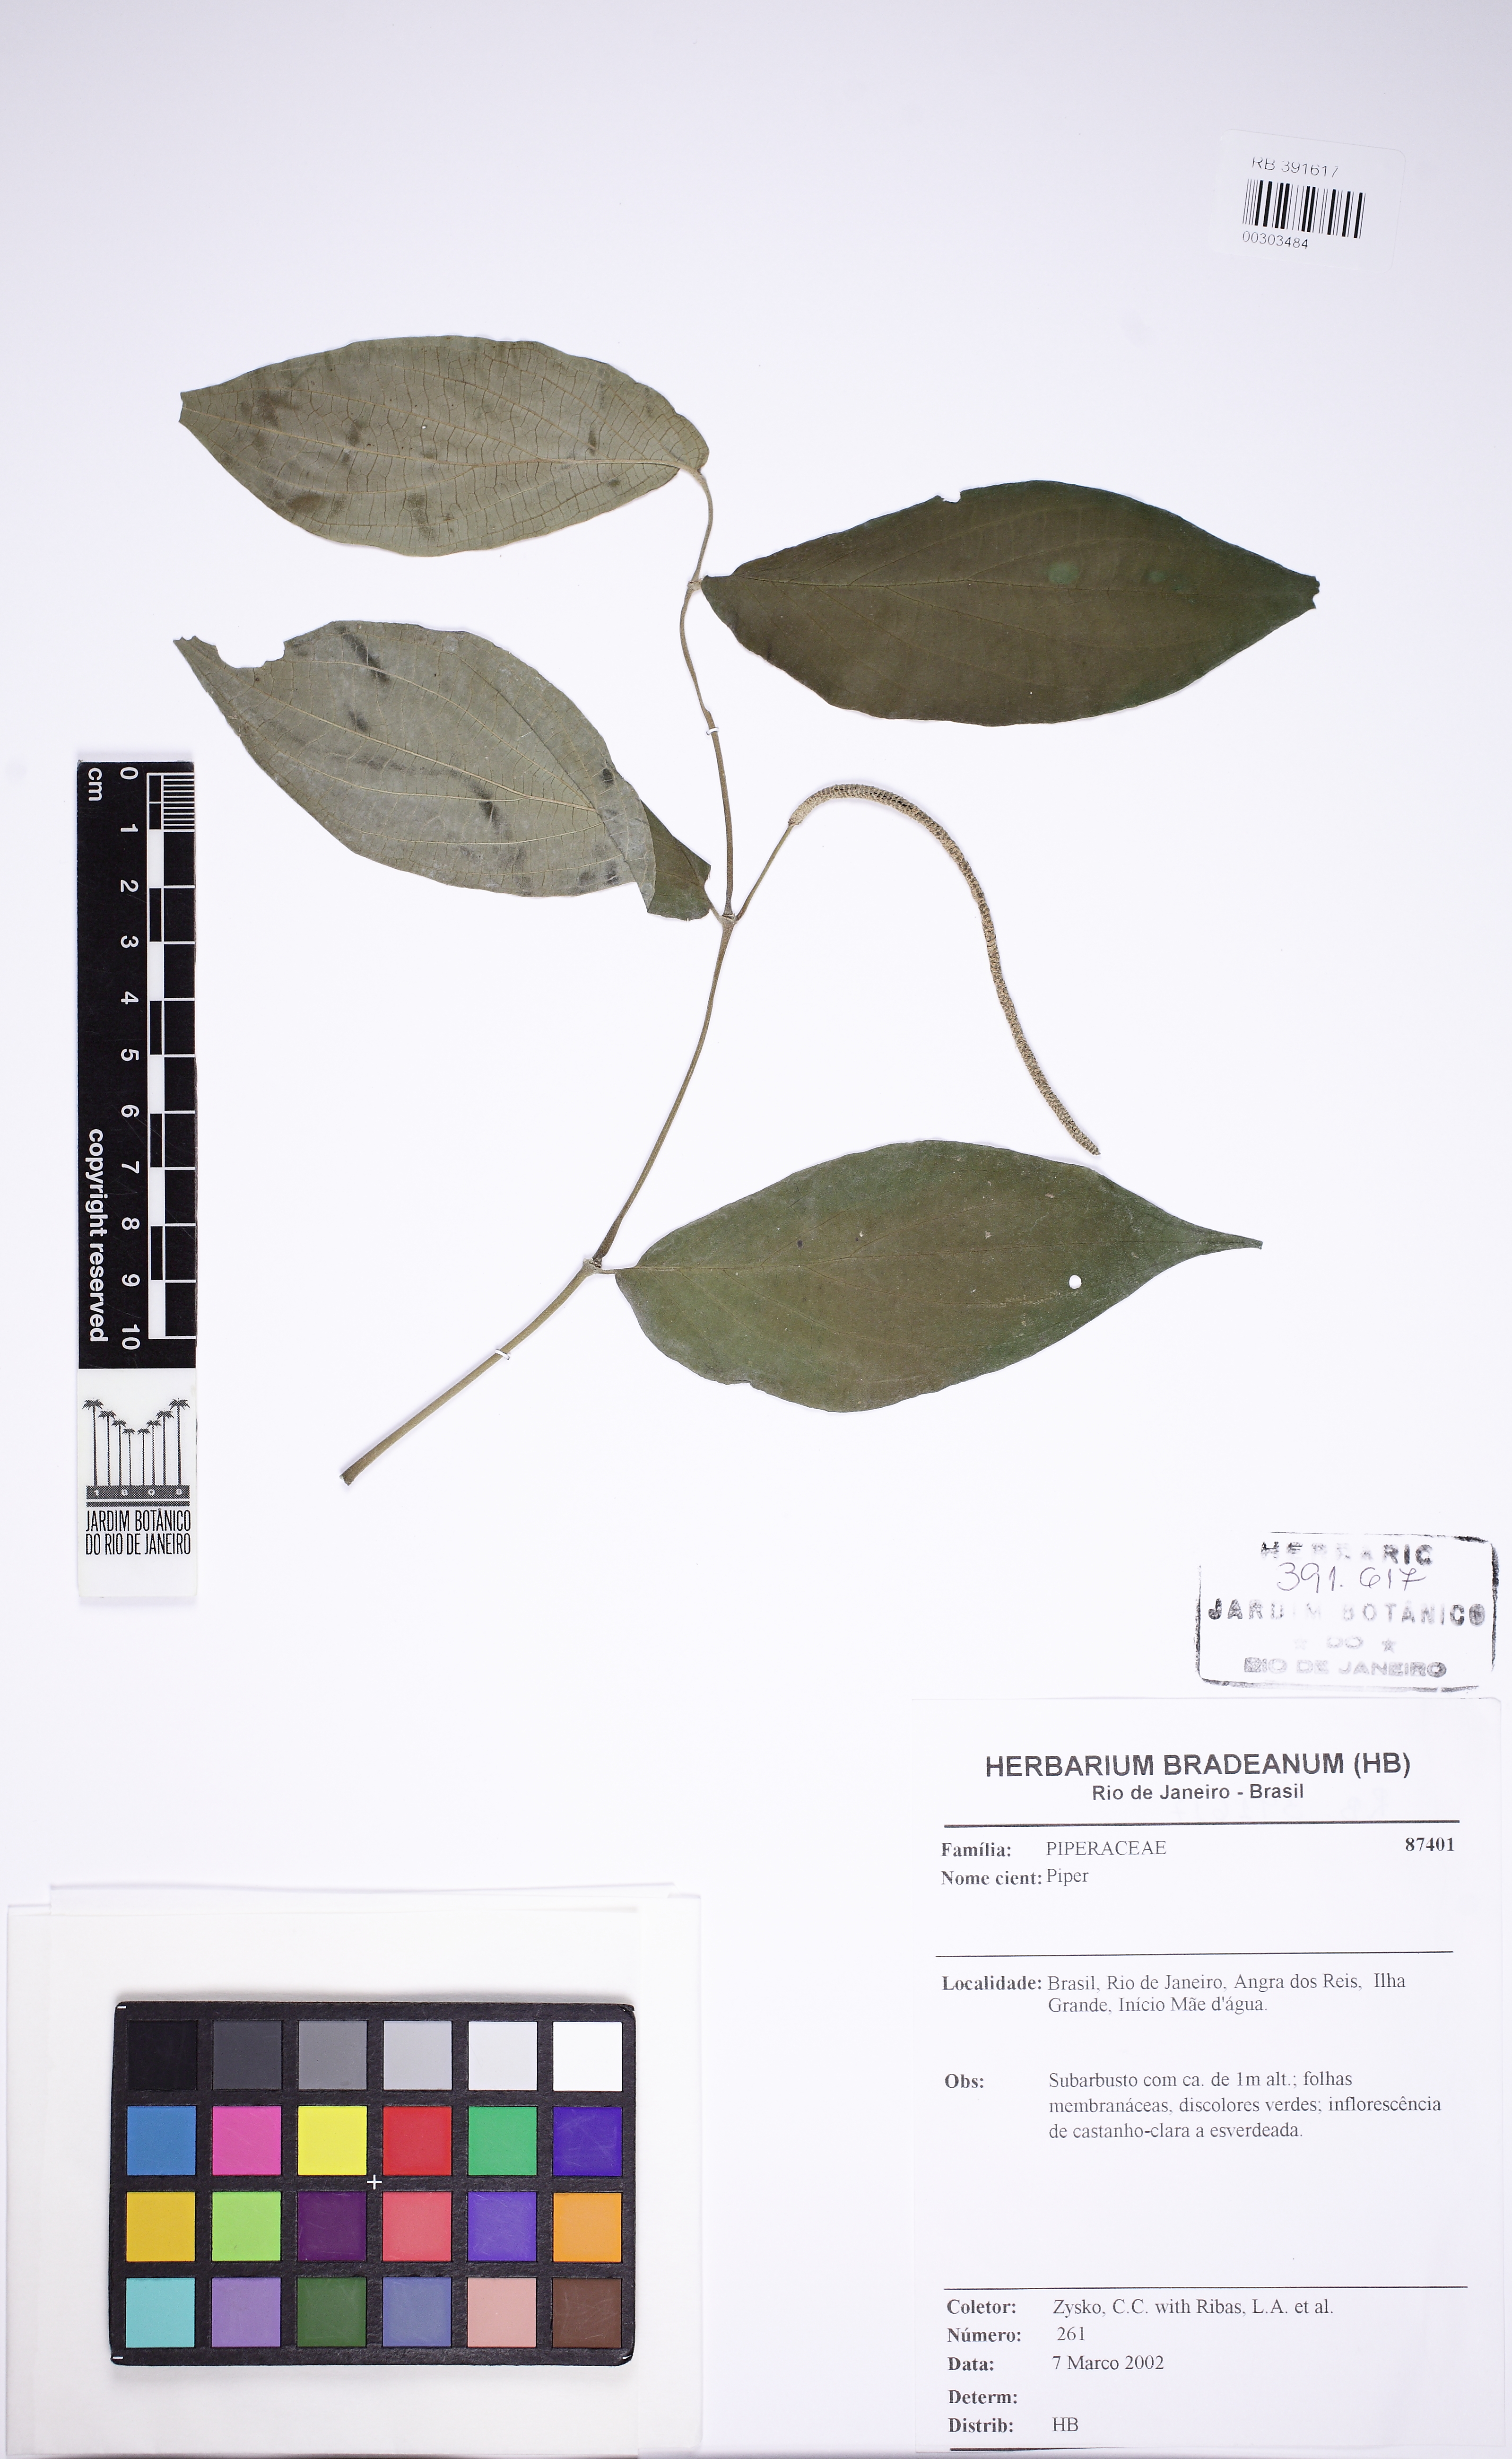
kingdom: Plantae
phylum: Tracheophyta
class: Magnoliopsida
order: Piperales
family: Piperaceae
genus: Piper
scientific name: Piper gaudichaudianum
